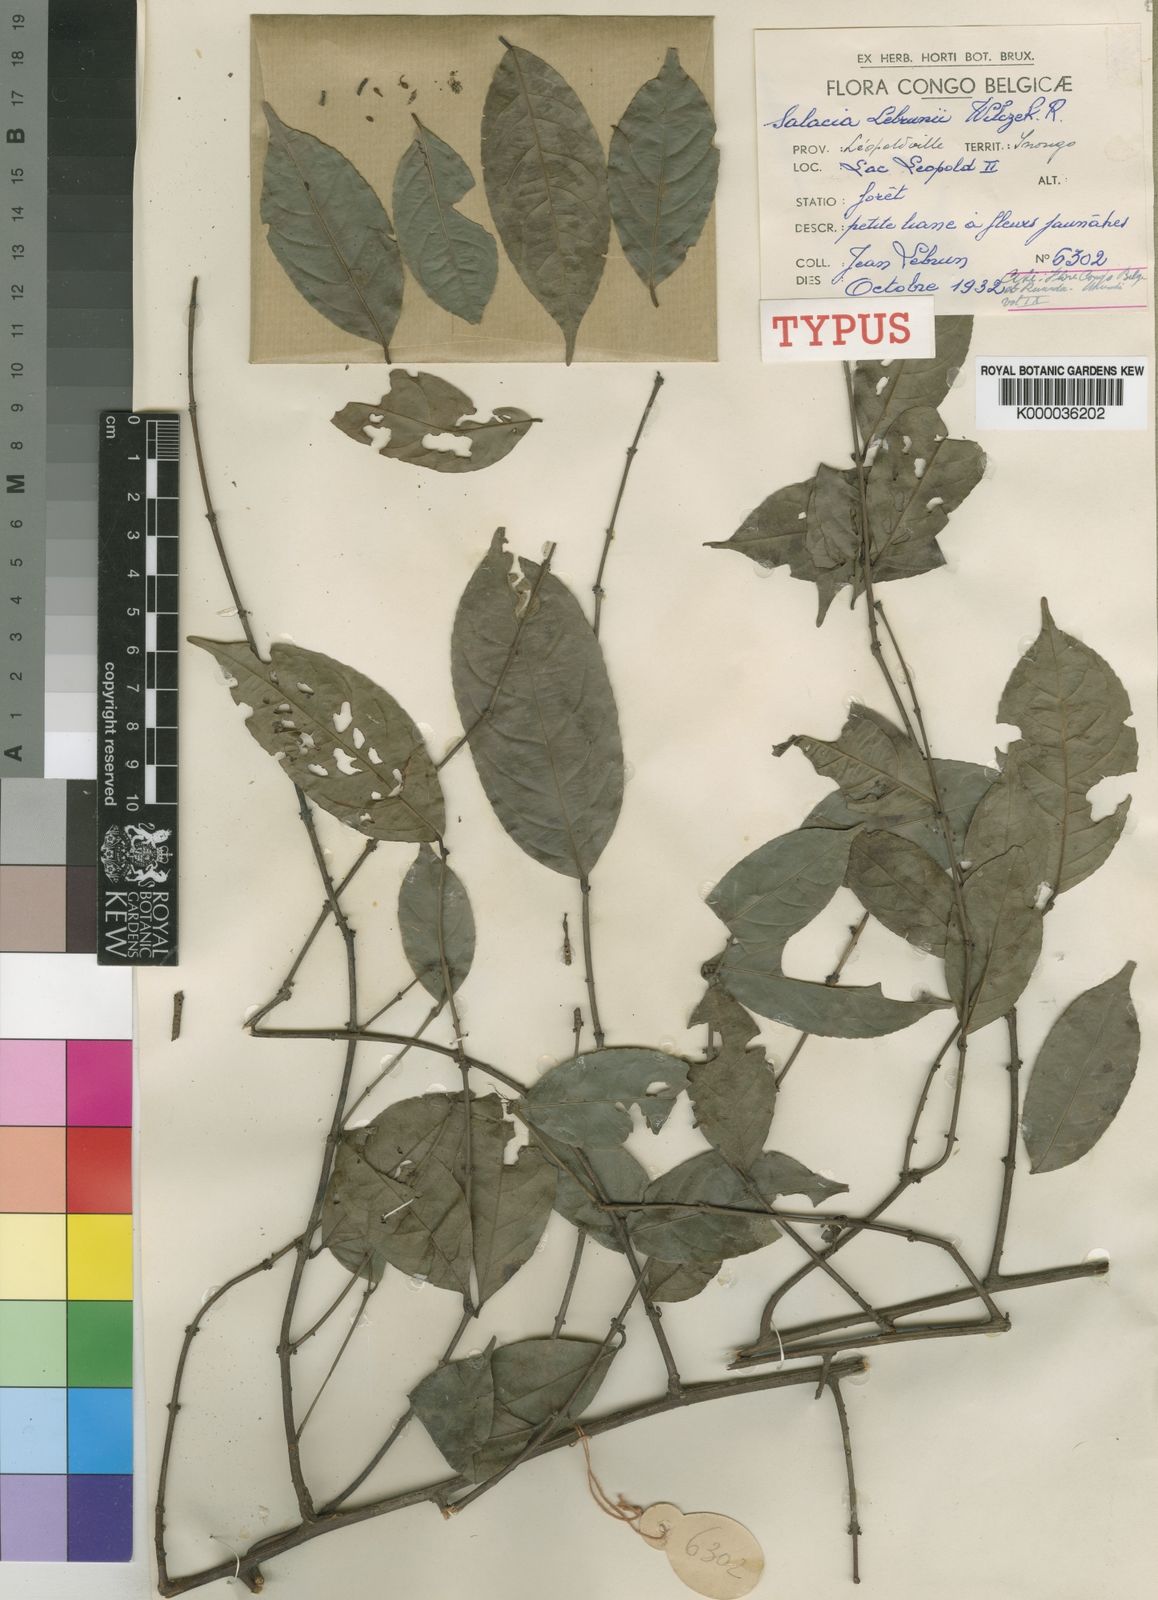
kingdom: Plantae
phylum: Tracheophyta
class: Magnoliopsida
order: Celastrales
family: Celastraceae
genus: Salacia
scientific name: Salacia lebrunii
